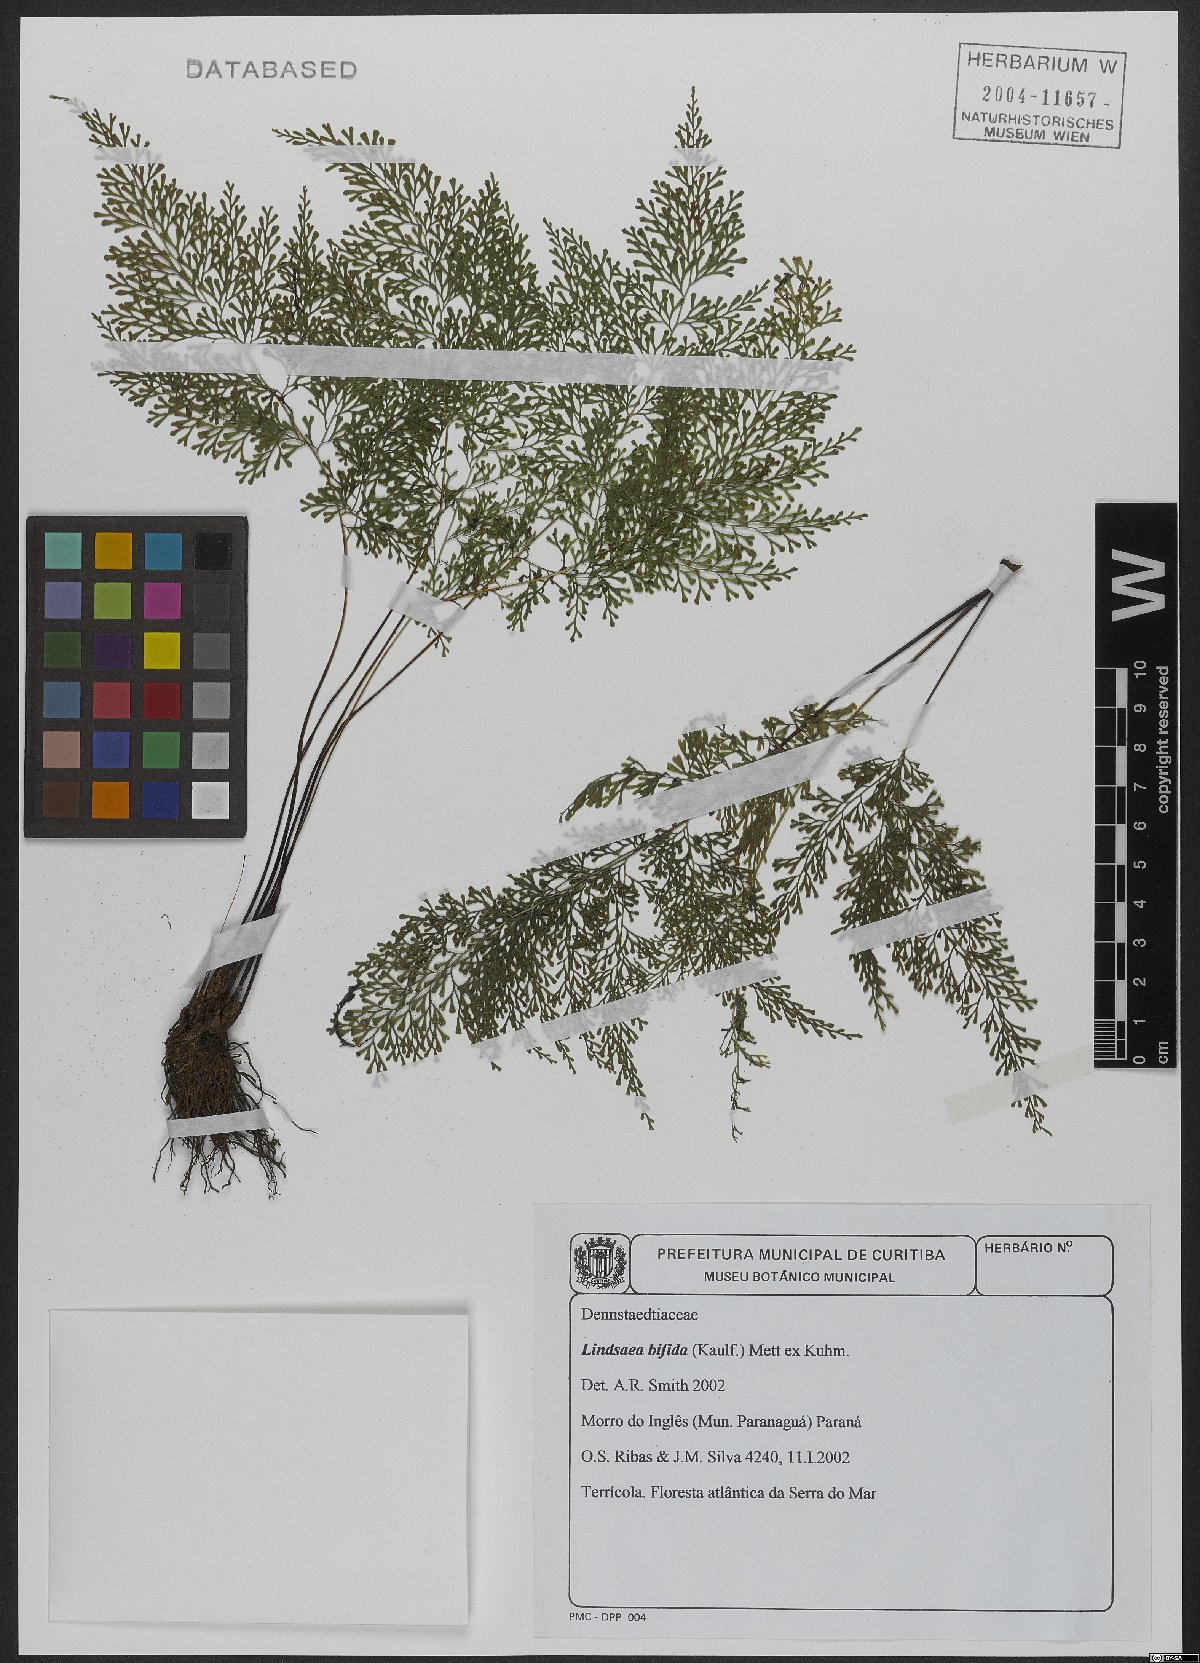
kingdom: Plantae
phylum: Tracheophyta
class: Polypodiopsida
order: Polypodiales
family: Lindsaeaceae
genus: Lindsaea
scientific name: Lindsaea bifida
